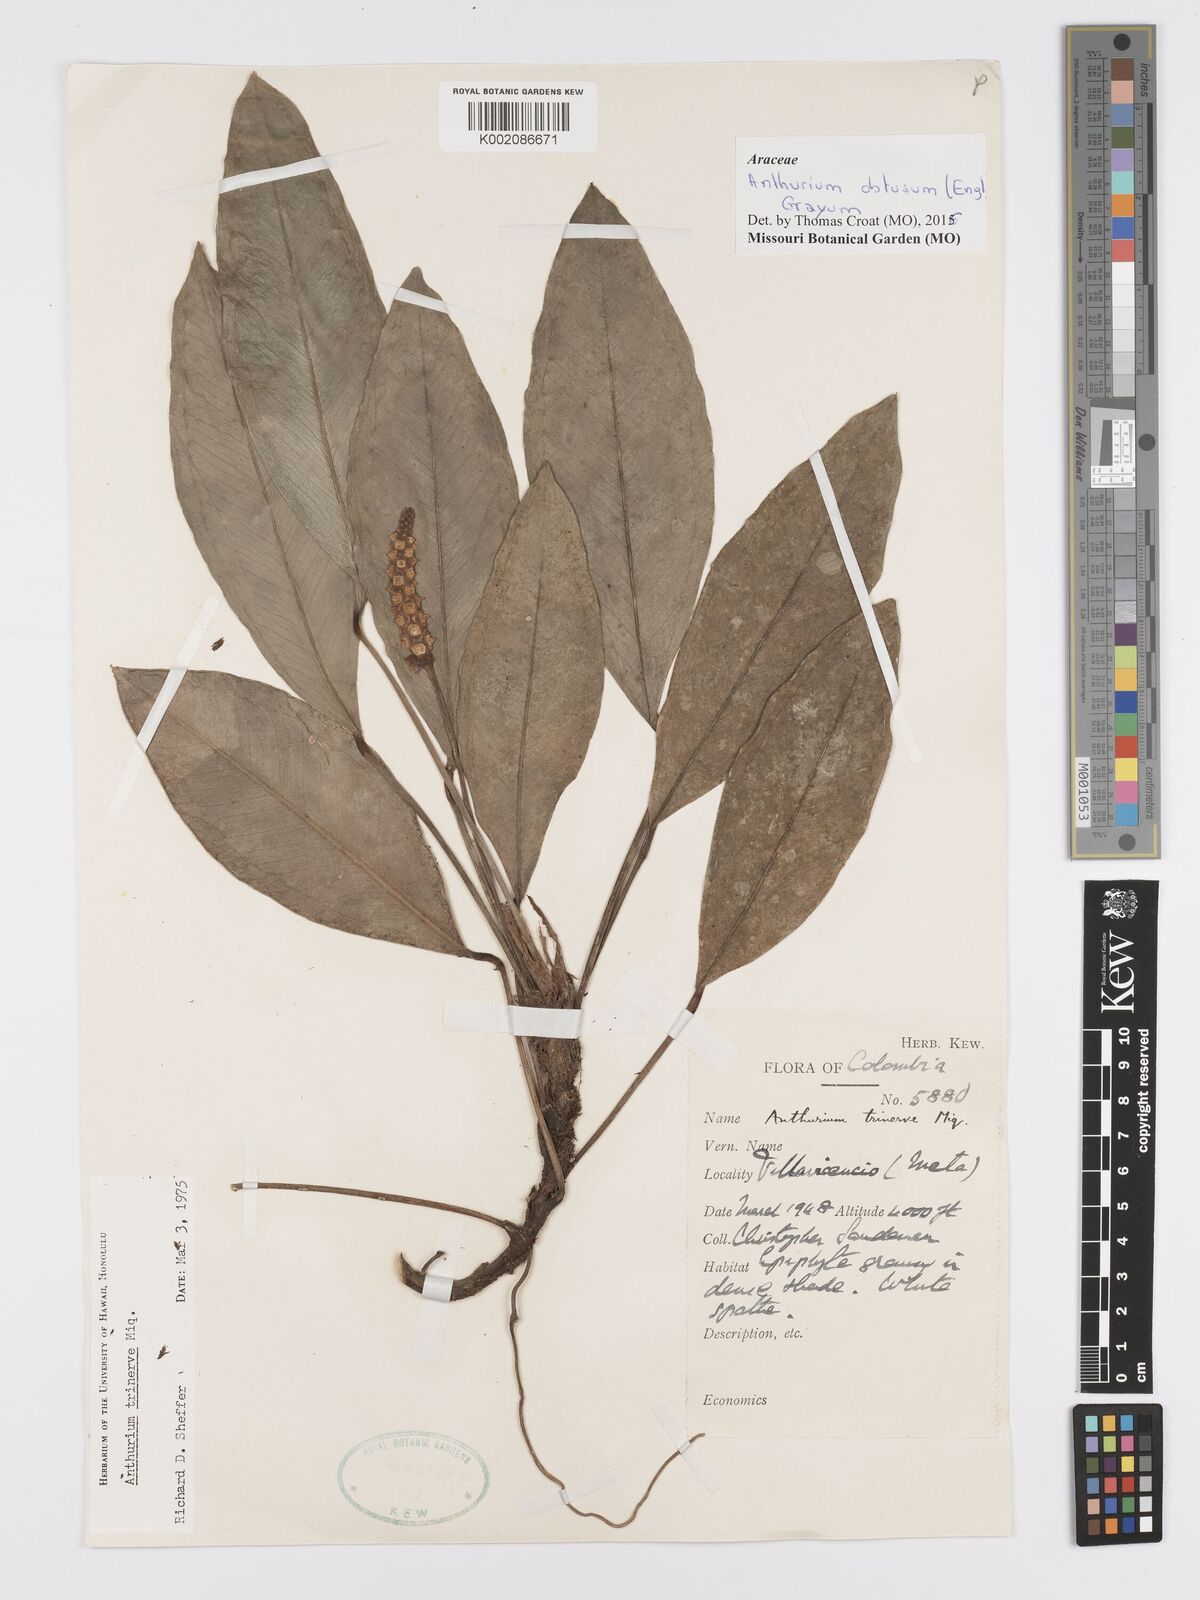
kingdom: Plantae
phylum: Tracheophyta
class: Liliopsida
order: Alismatales
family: Araceae
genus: Anthurium
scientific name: Anthurium obtusum
